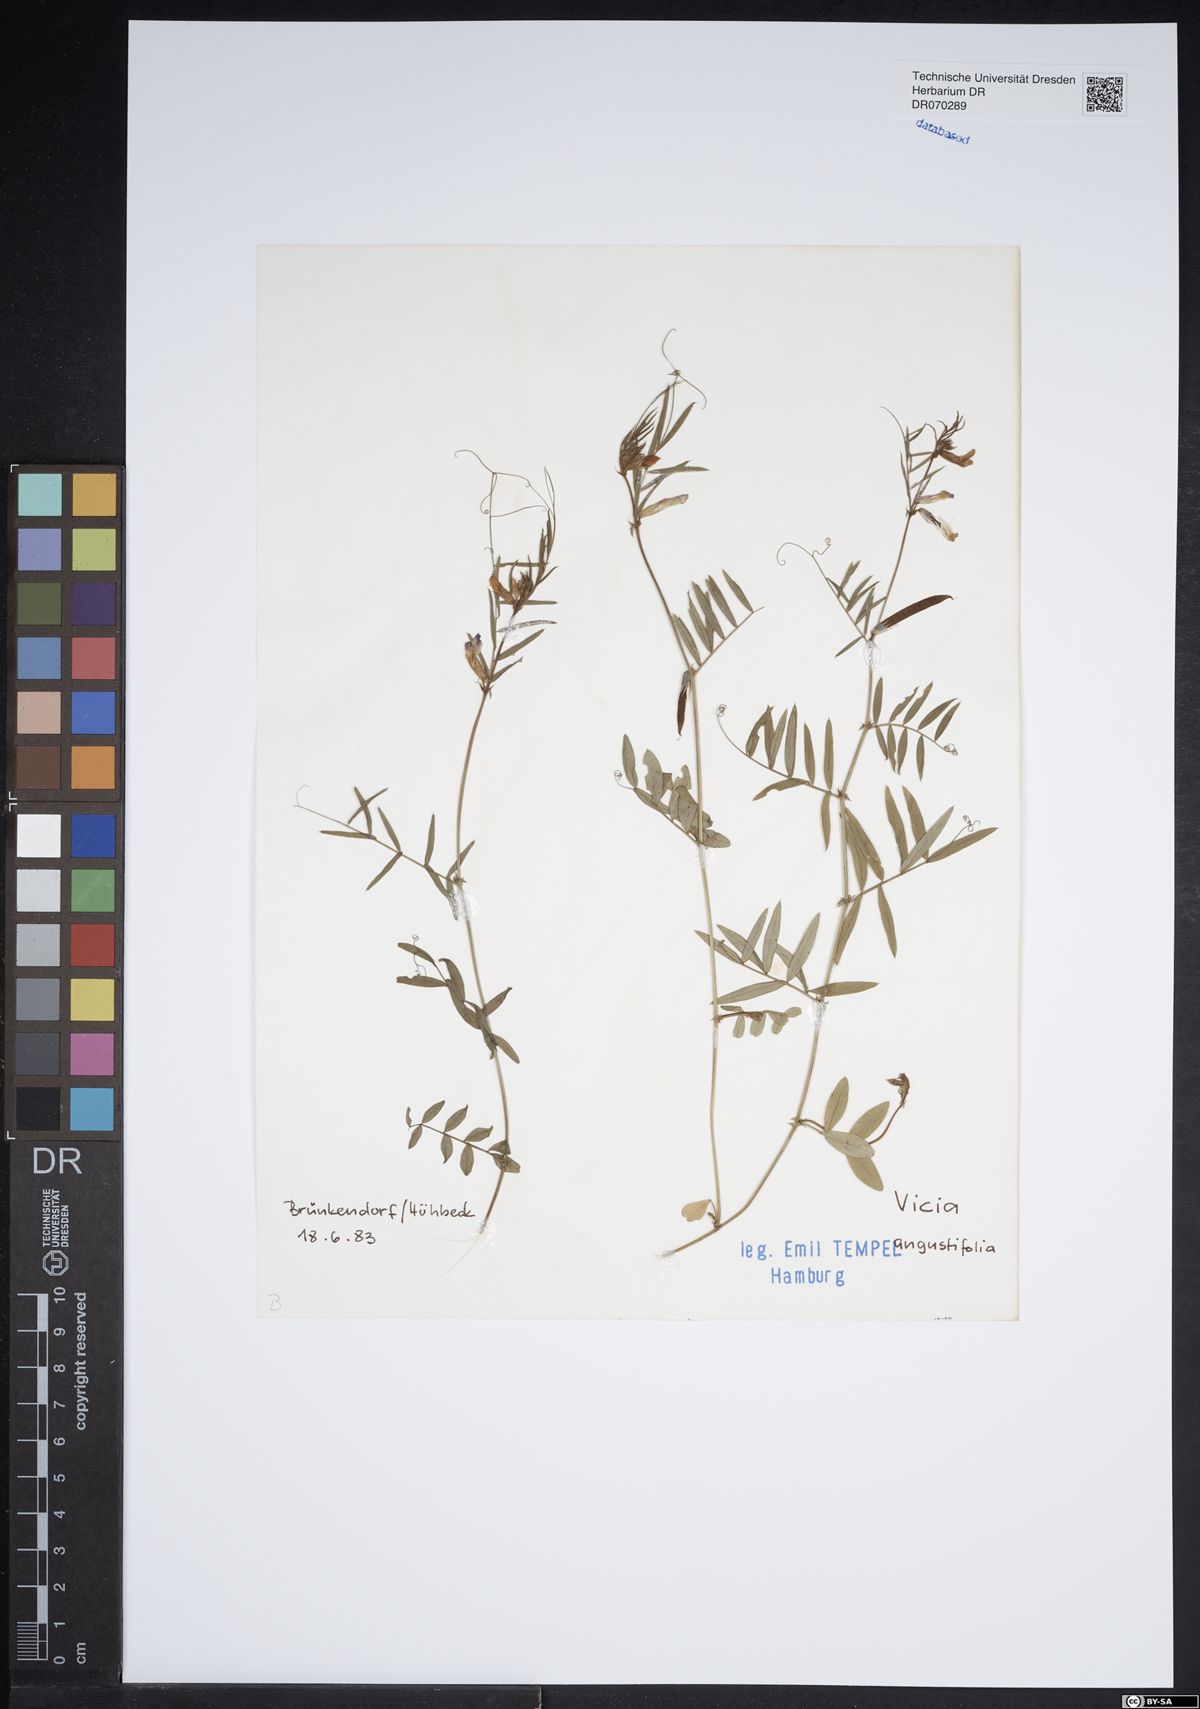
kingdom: Plantae
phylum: Tracheophyta
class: Magnoliopsida
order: Fabales
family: Fabaceae
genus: Vicia
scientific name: Vicia sativa
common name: Garden vetch
